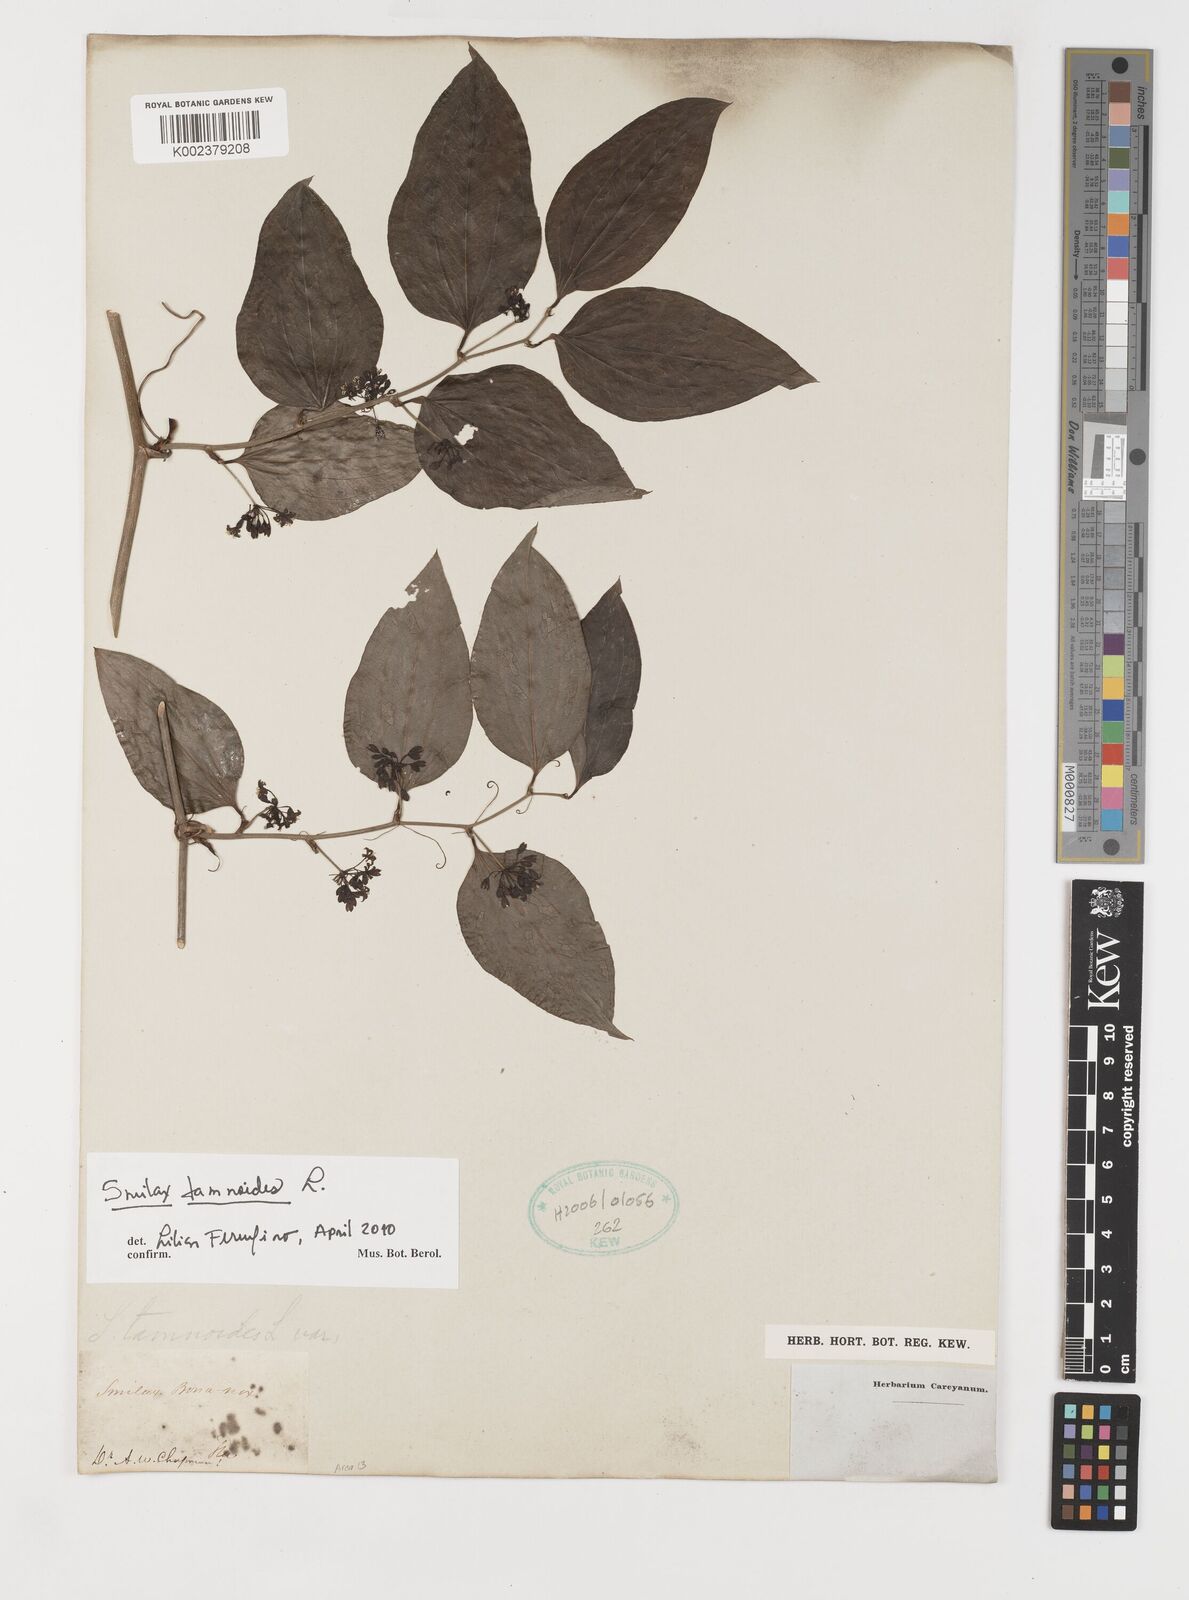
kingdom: Plantae
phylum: Tracheophyta
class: Liliopsida
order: Liliales
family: Smilacaceae
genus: Smilax
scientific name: Smilax pseudochina
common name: False chinaroot
